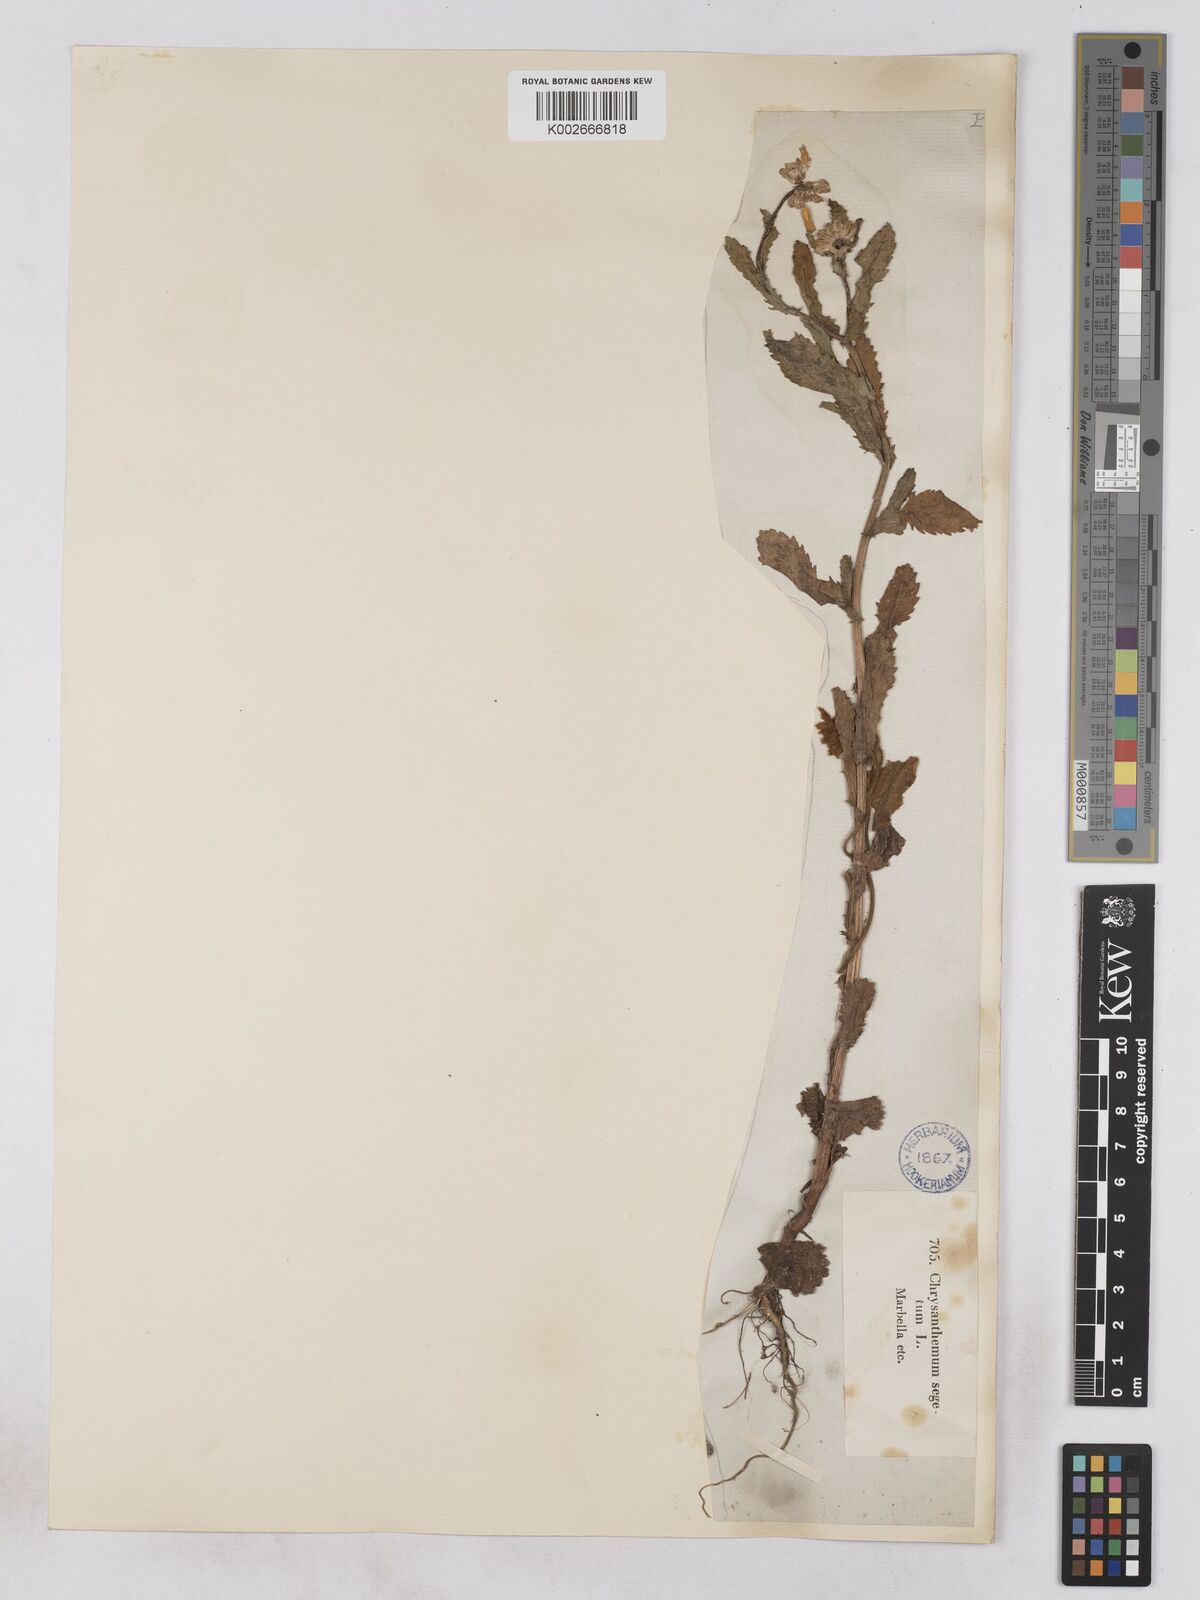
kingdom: Plantae
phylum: Tracheophyta
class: Magnoliopsida
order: Asterales
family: Asteraceae
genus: Glebionis
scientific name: Glebionis segetum
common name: Corndaisy
